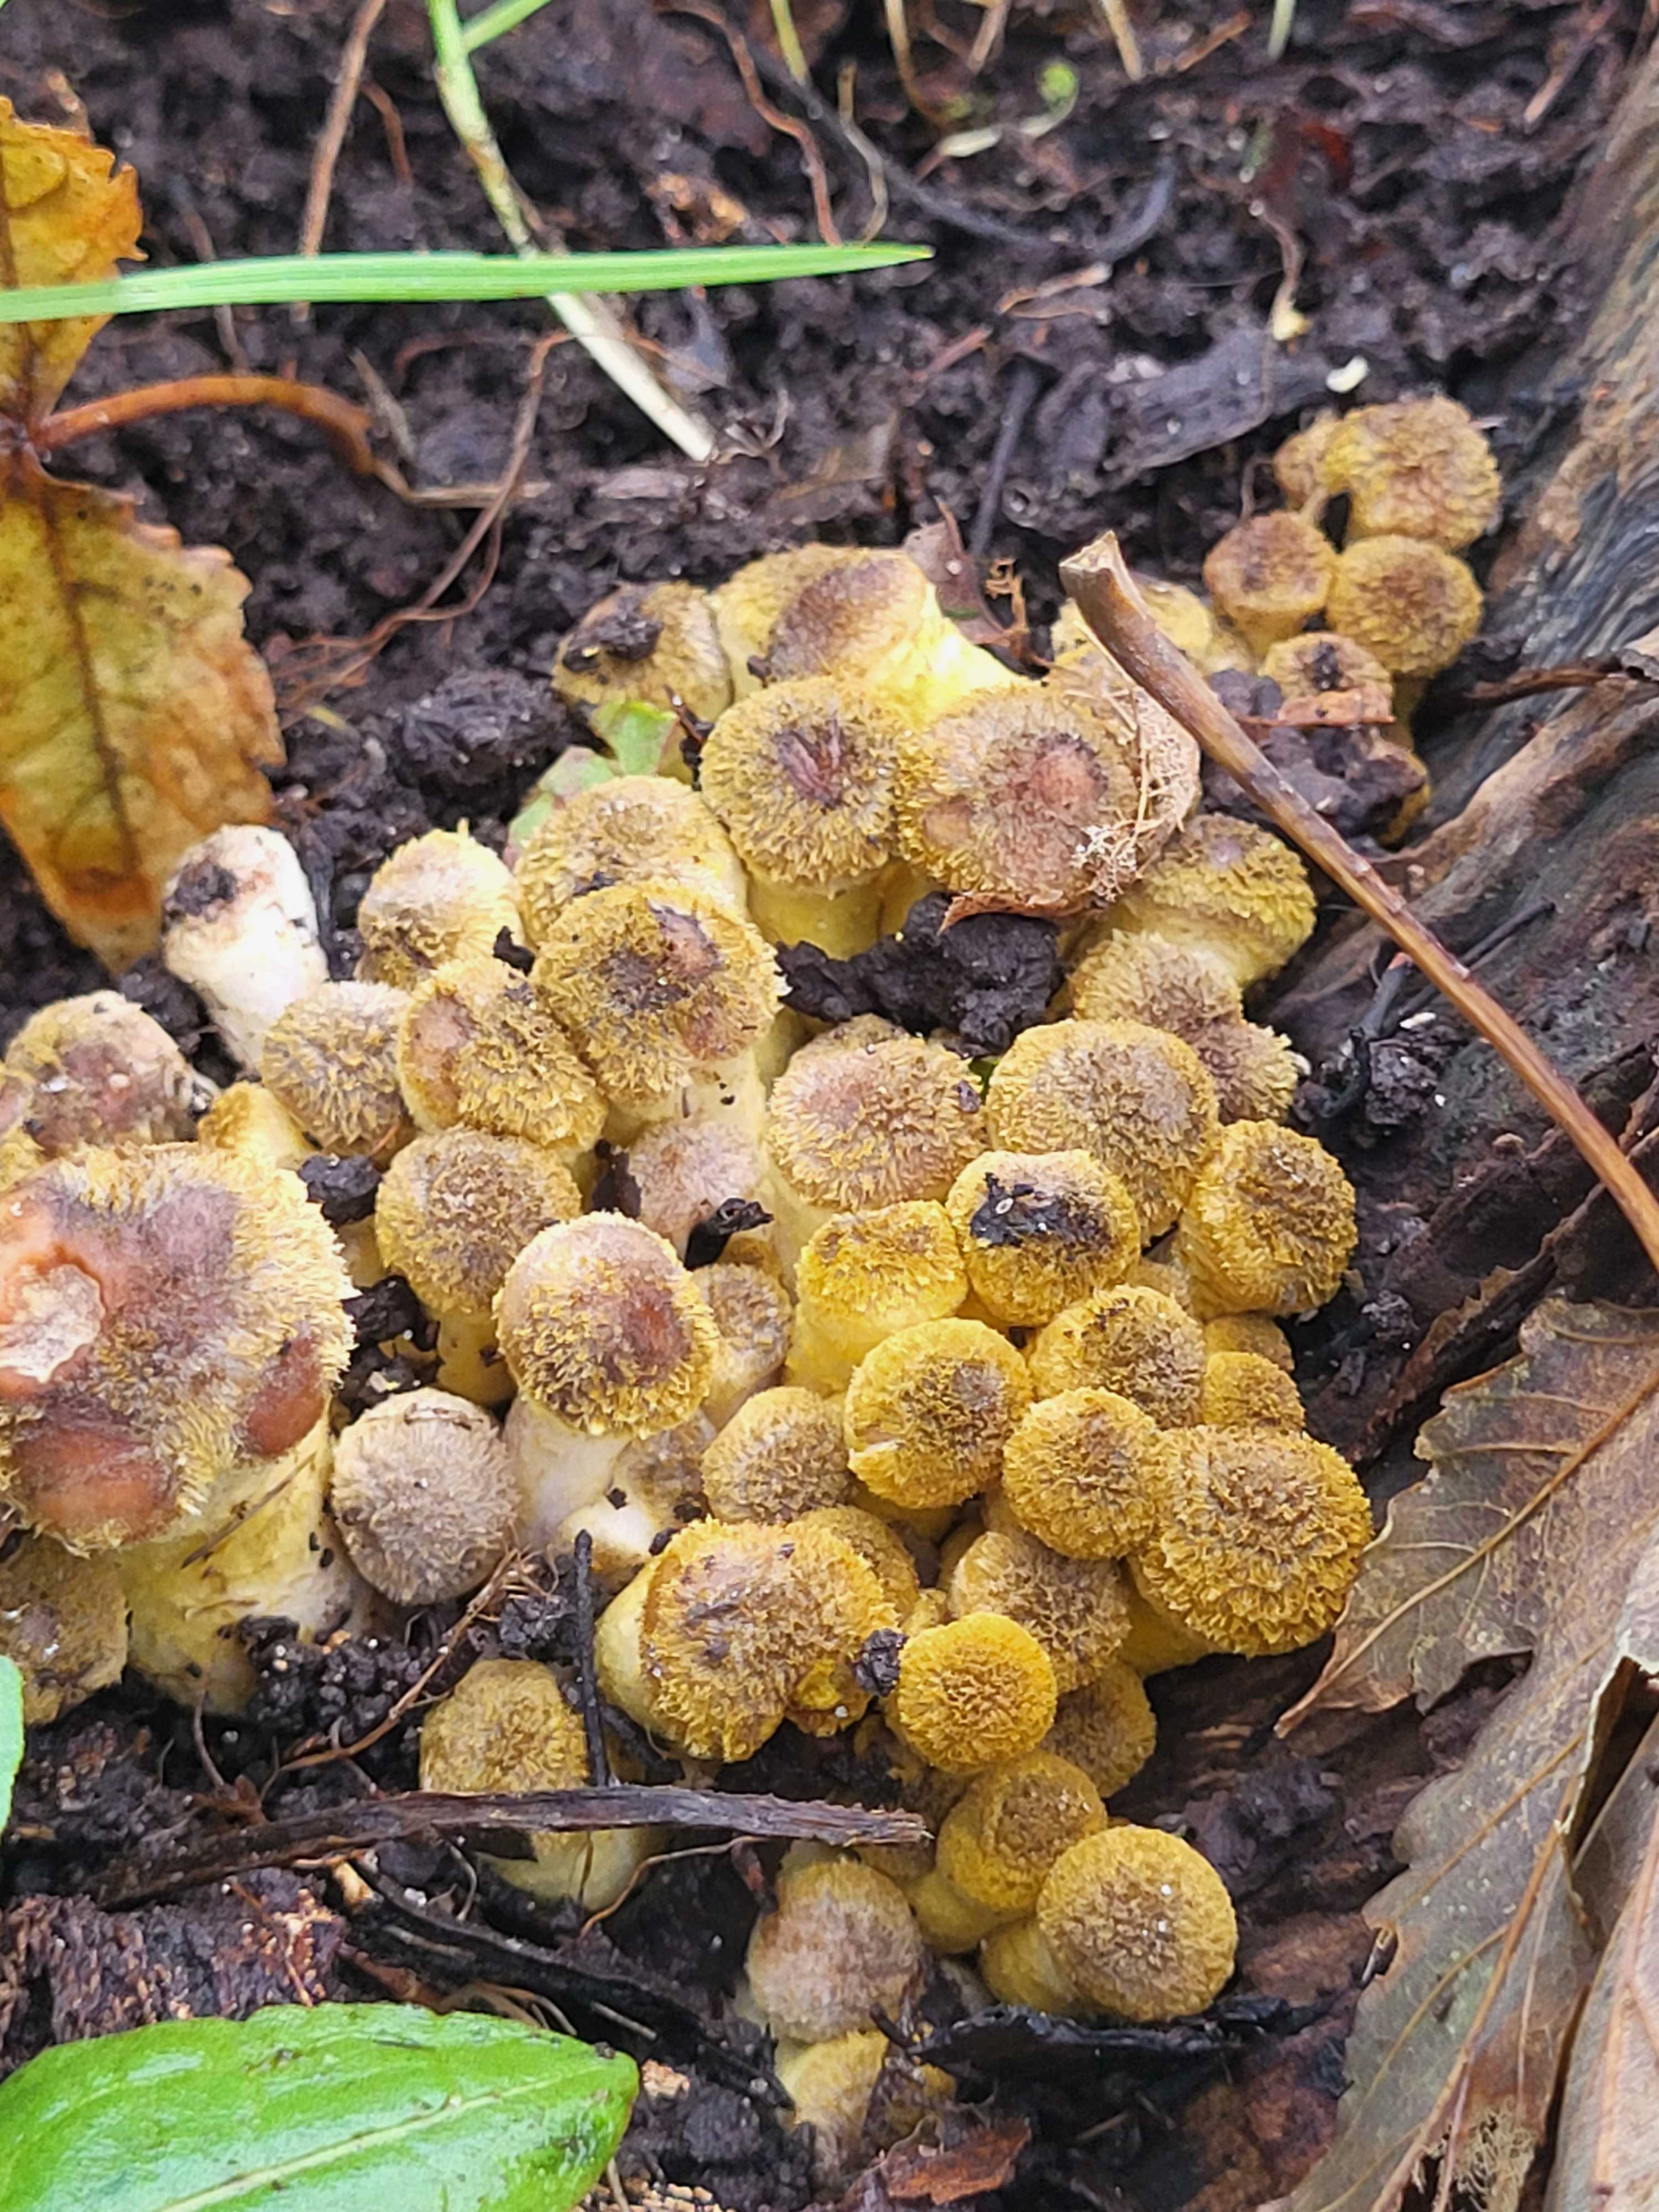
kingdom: Fungi
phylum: Basidiomycota
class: Agaricomycetes
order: Agaricales
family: Physalacriaceae
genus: Armillaria
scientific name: Armillaria
